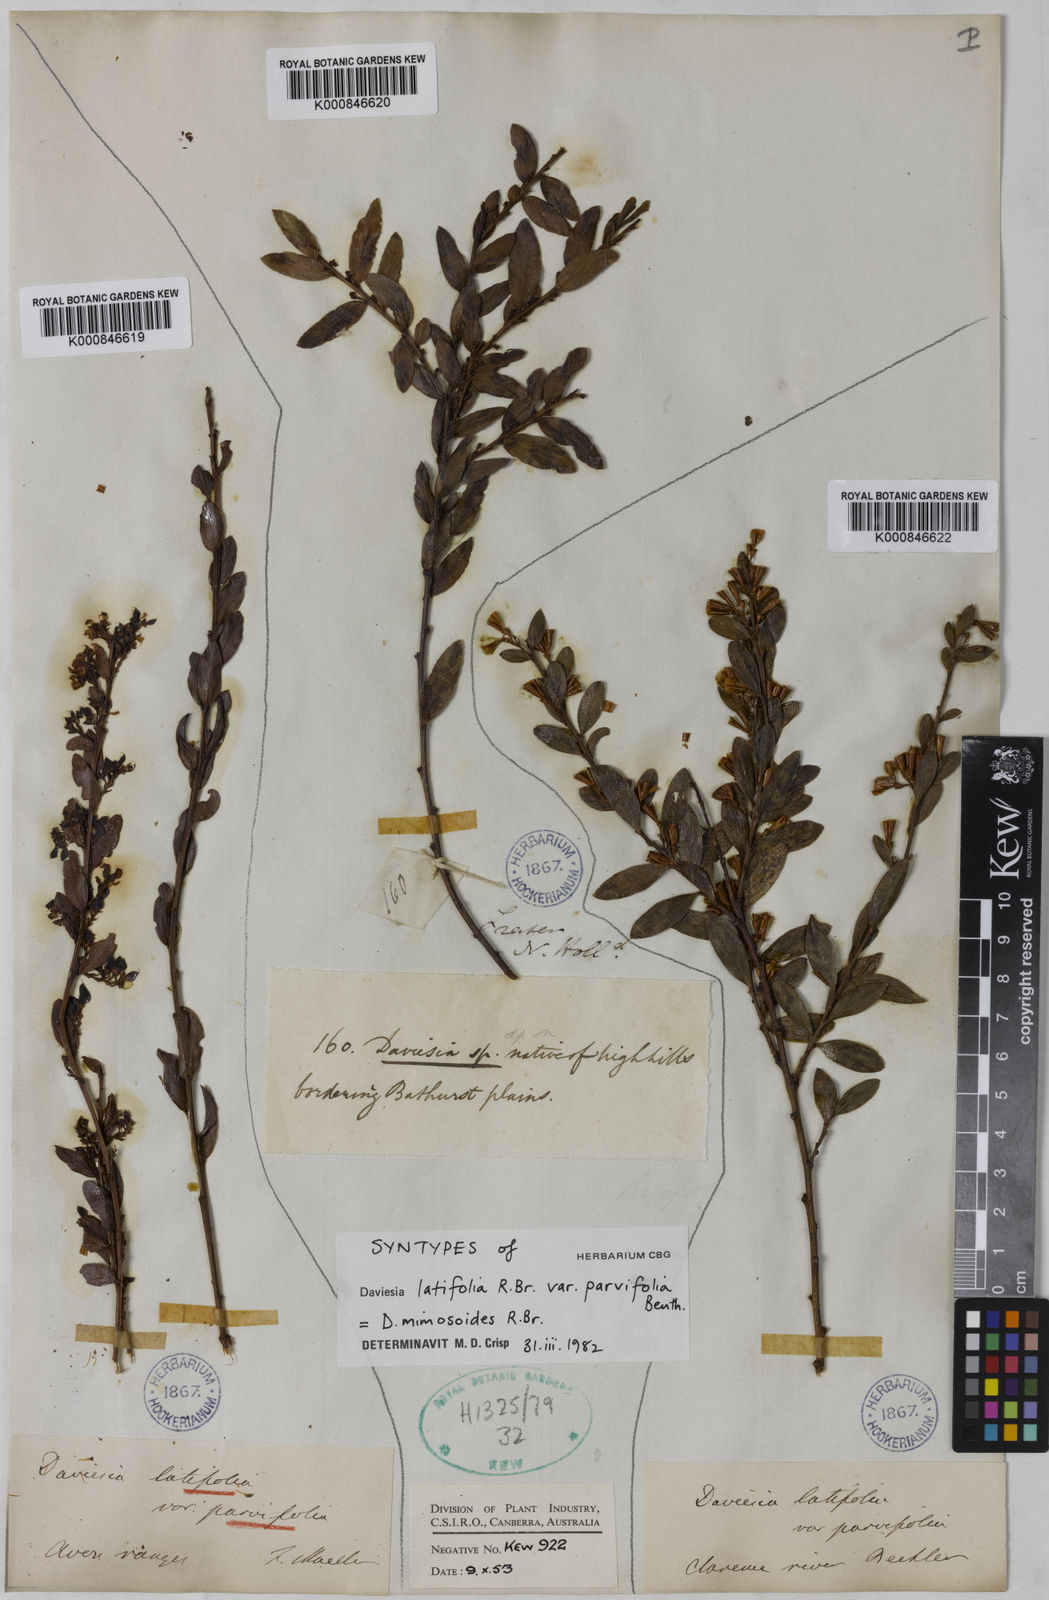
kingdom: Plantae
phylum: Tracheophyta
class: Magnoliopsida
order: Fabales
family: Fabaceae
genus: Daviesia
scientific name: Daviesia mimosoides
